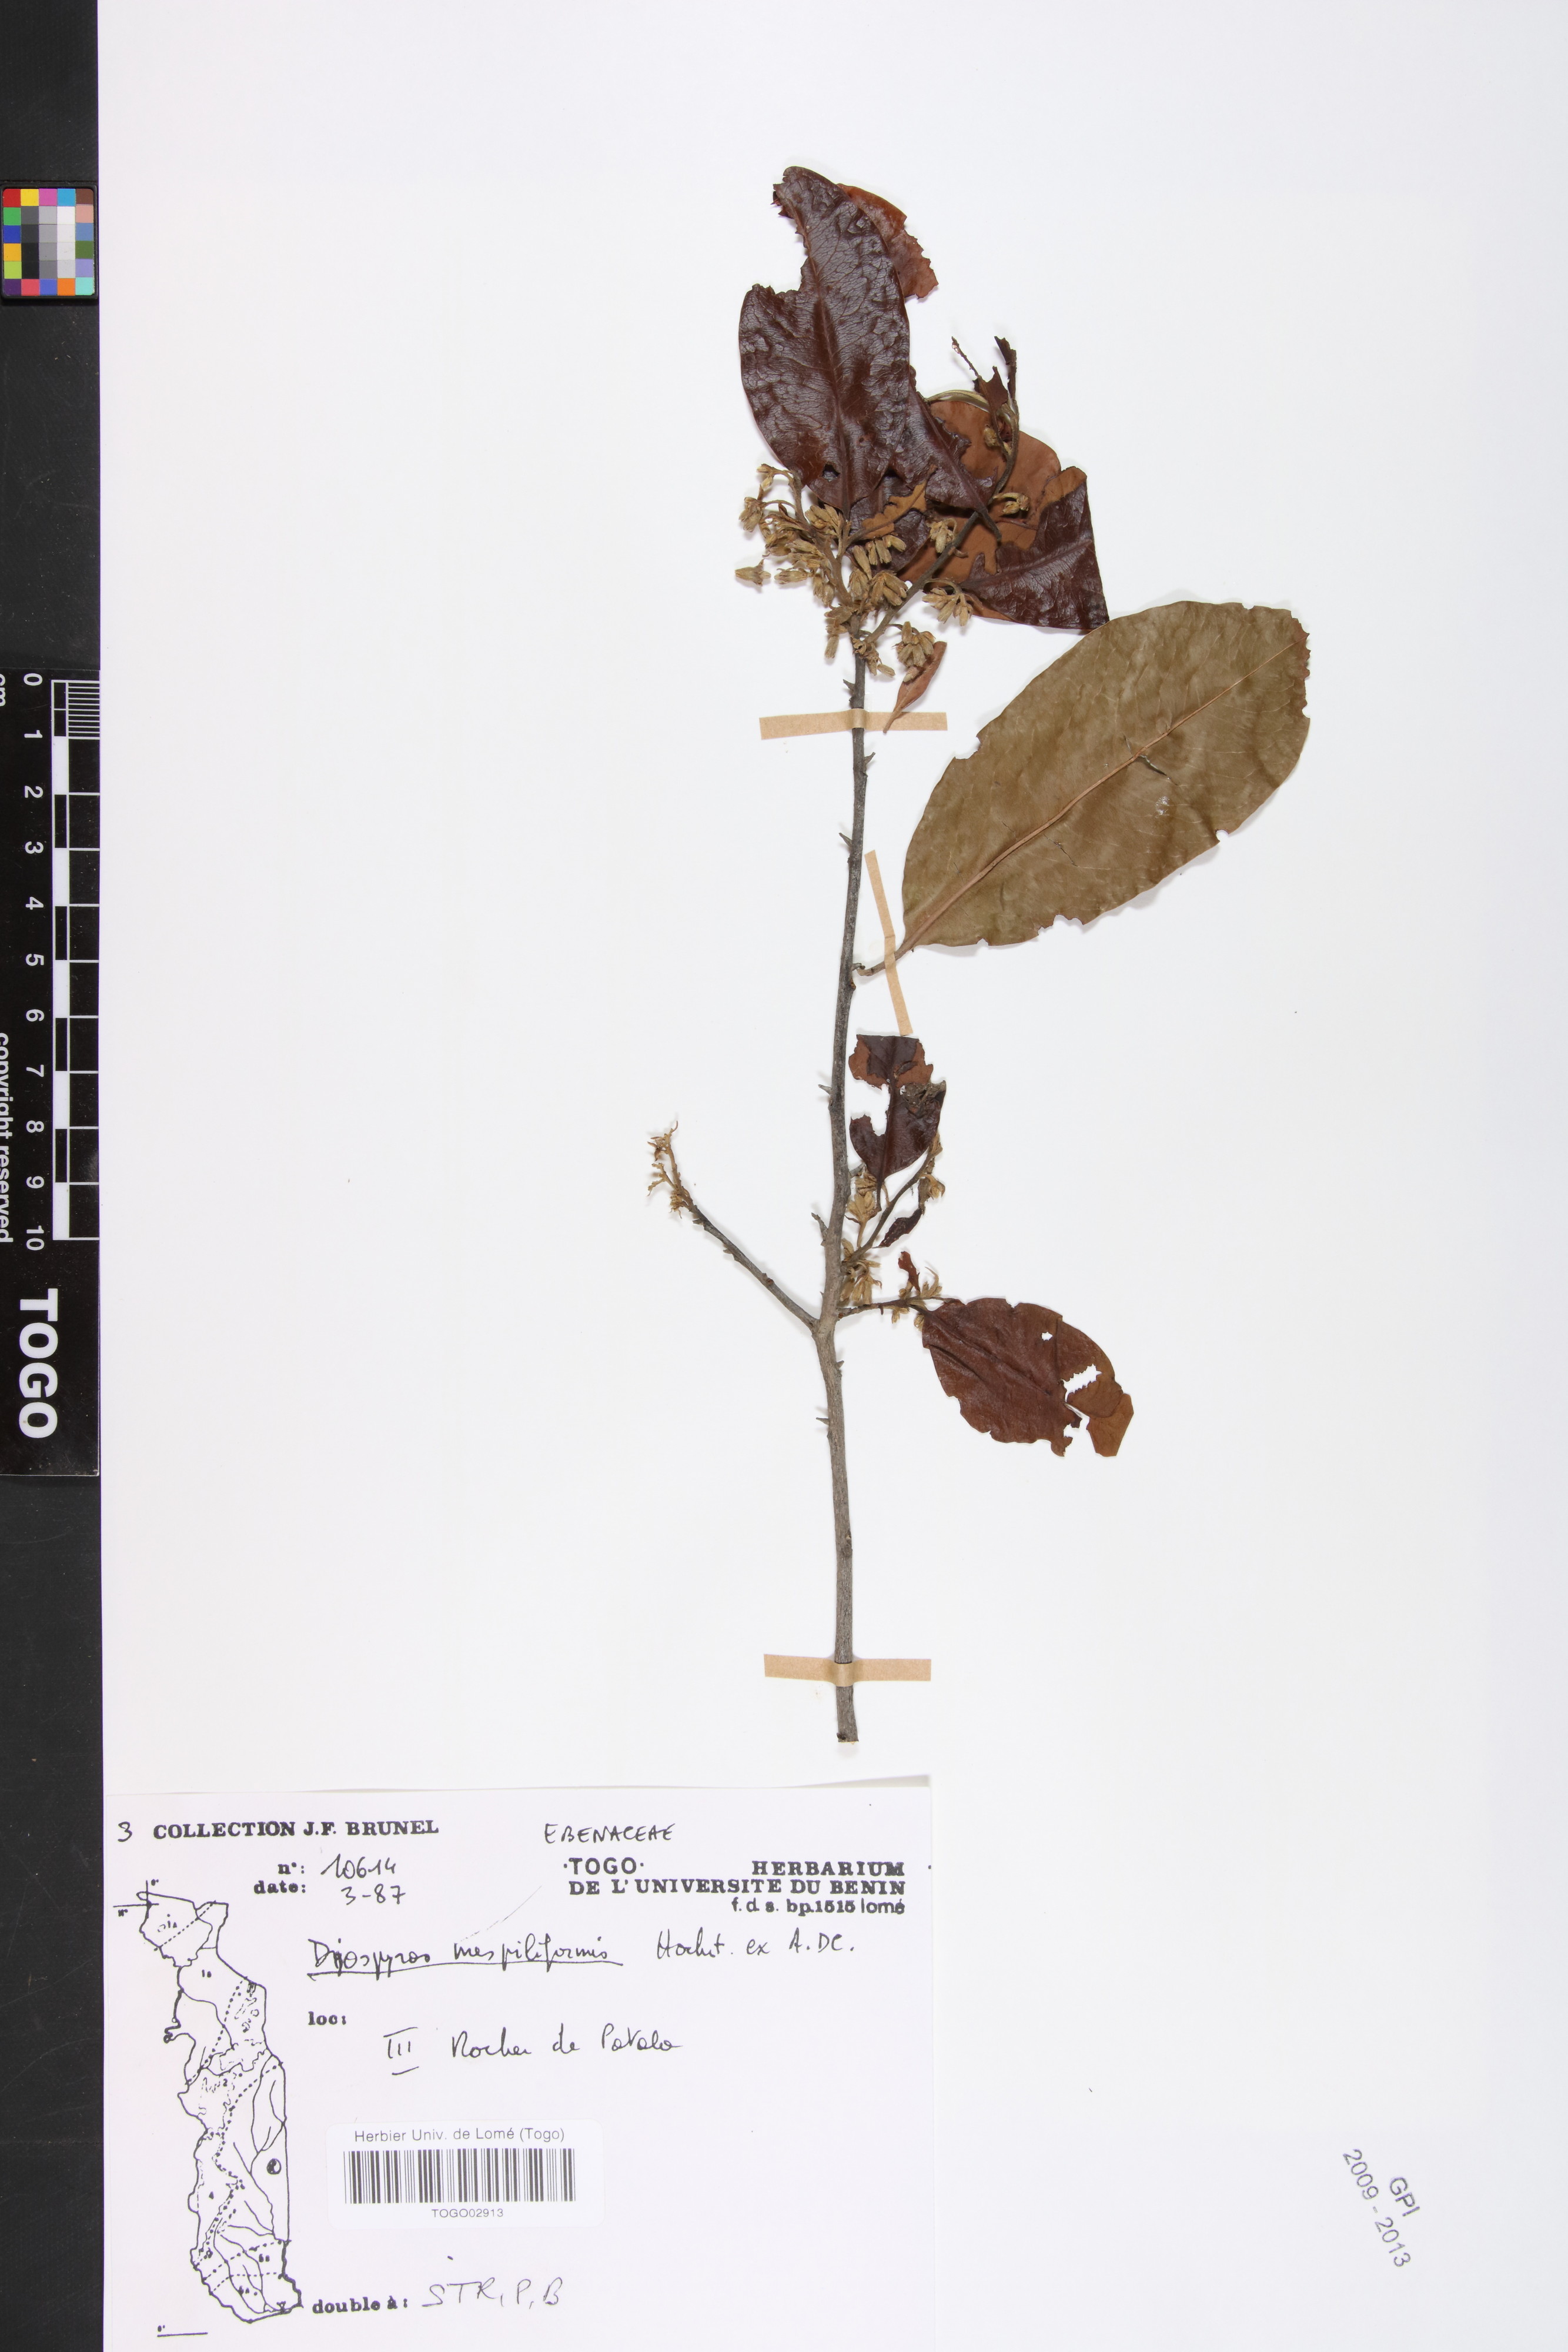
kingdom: Plantae
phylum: Tracheophyta
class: Magnoliopsida
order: Ericales
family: Ebenaceae
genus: Diospyros
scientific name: Diospyros mespiliformis
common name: Ebony diospyros
